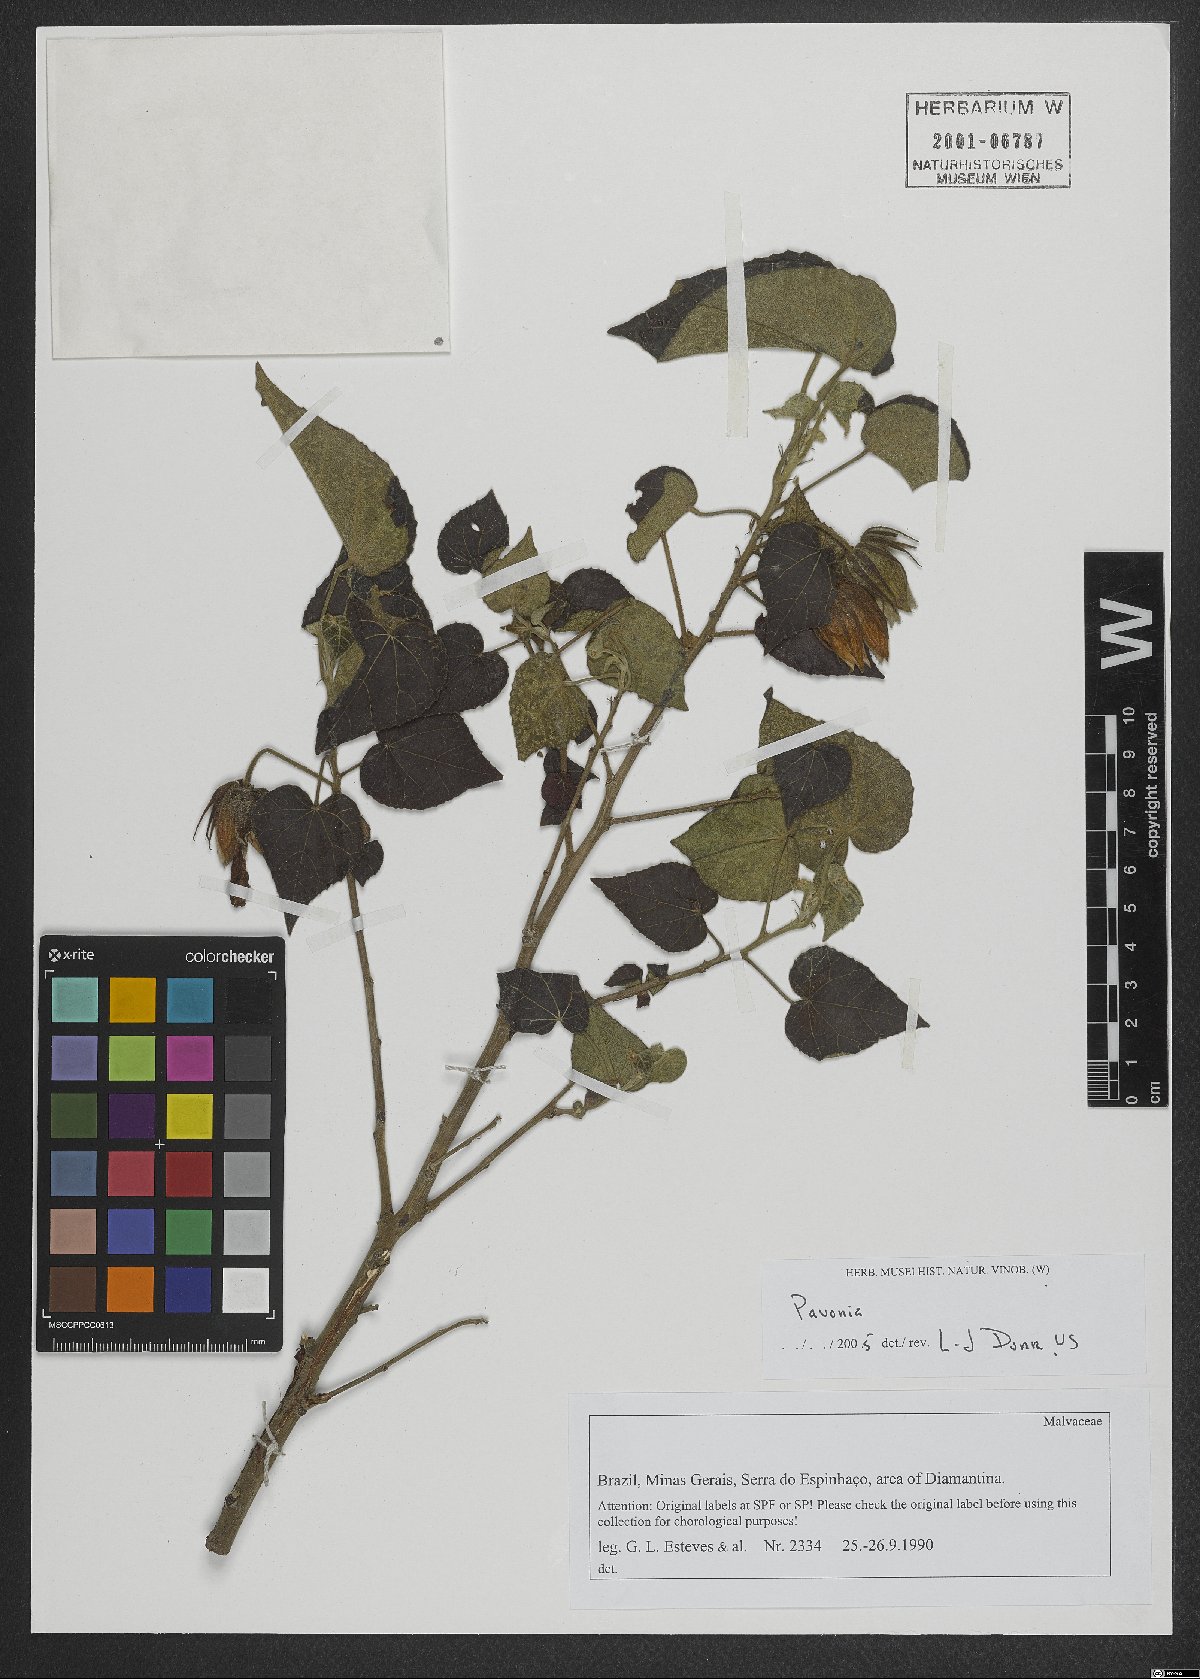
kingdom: Plantae
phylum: Tracheophyta
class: Magnoliopsida
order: Malvales
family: Malvaceae
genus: Pavonia
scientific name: Pavonia
